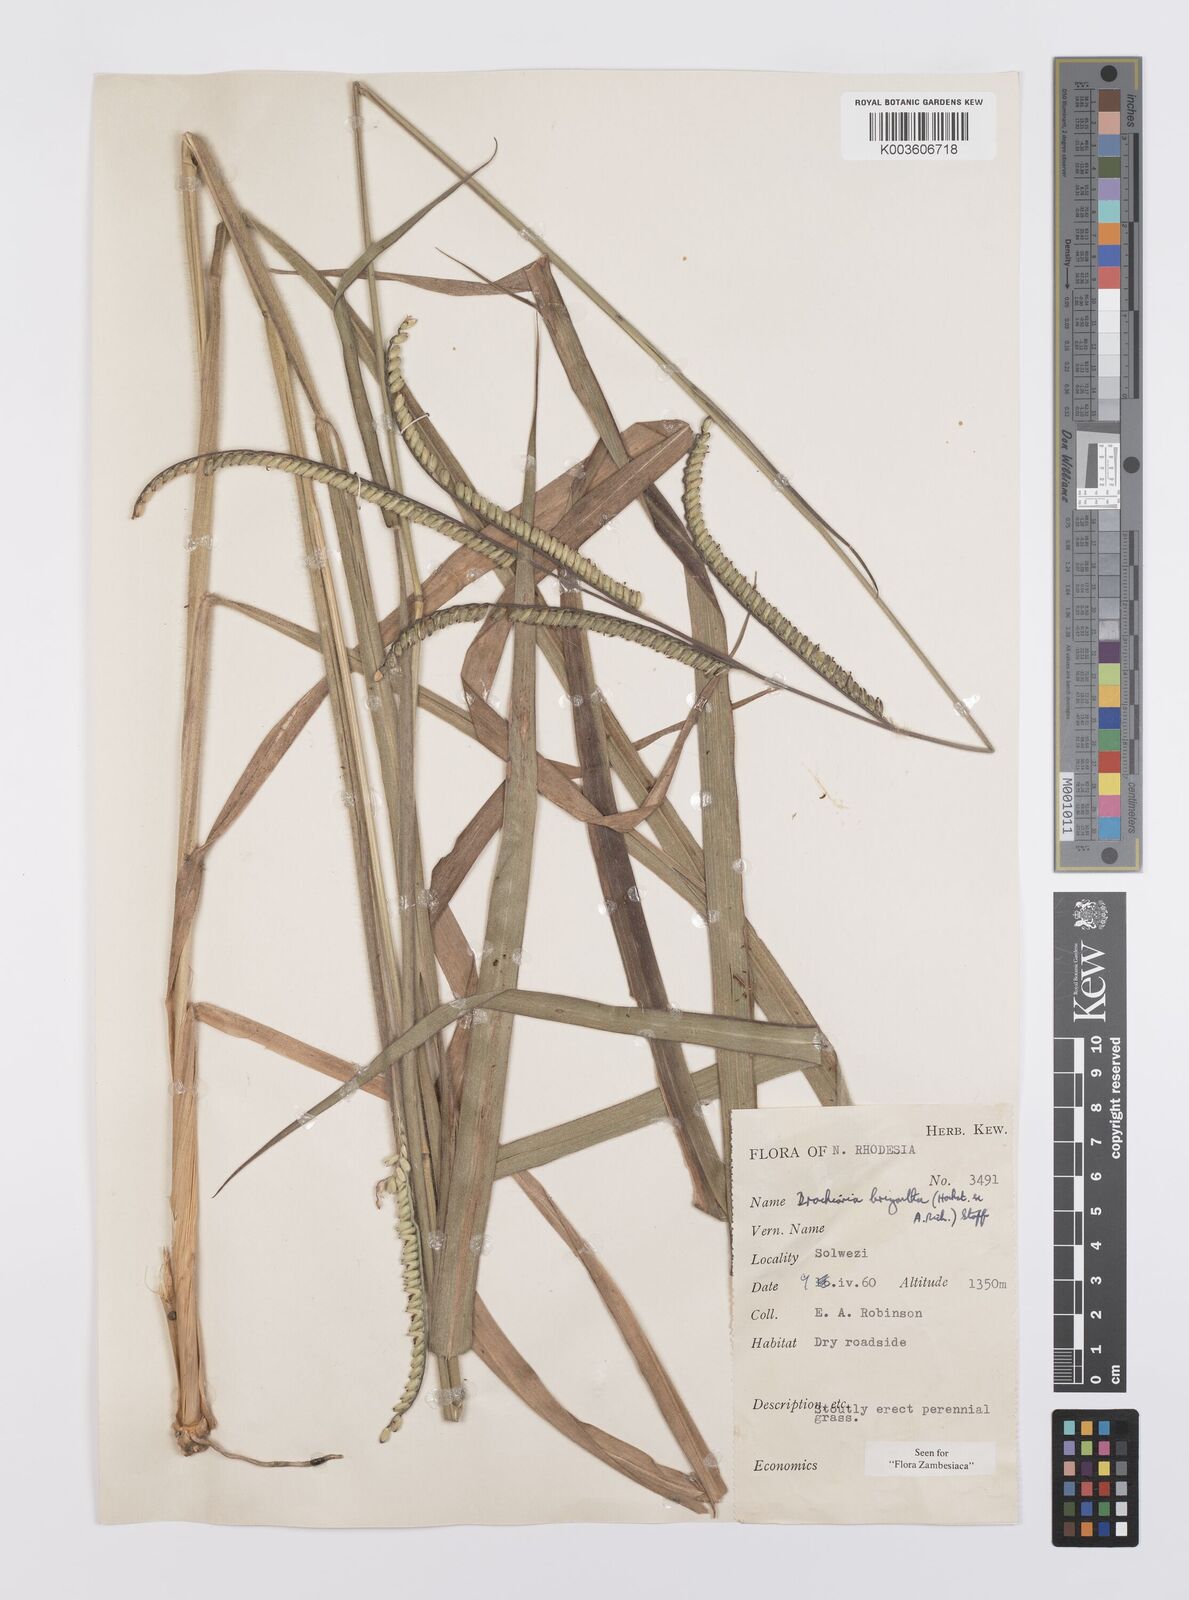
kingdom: Plantae
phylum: Tracheophyta
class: Liliopsida
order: Poales
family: Poaceae
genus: Urochloa
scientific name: Urochloa brizantha
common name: Palisade signalgrass
